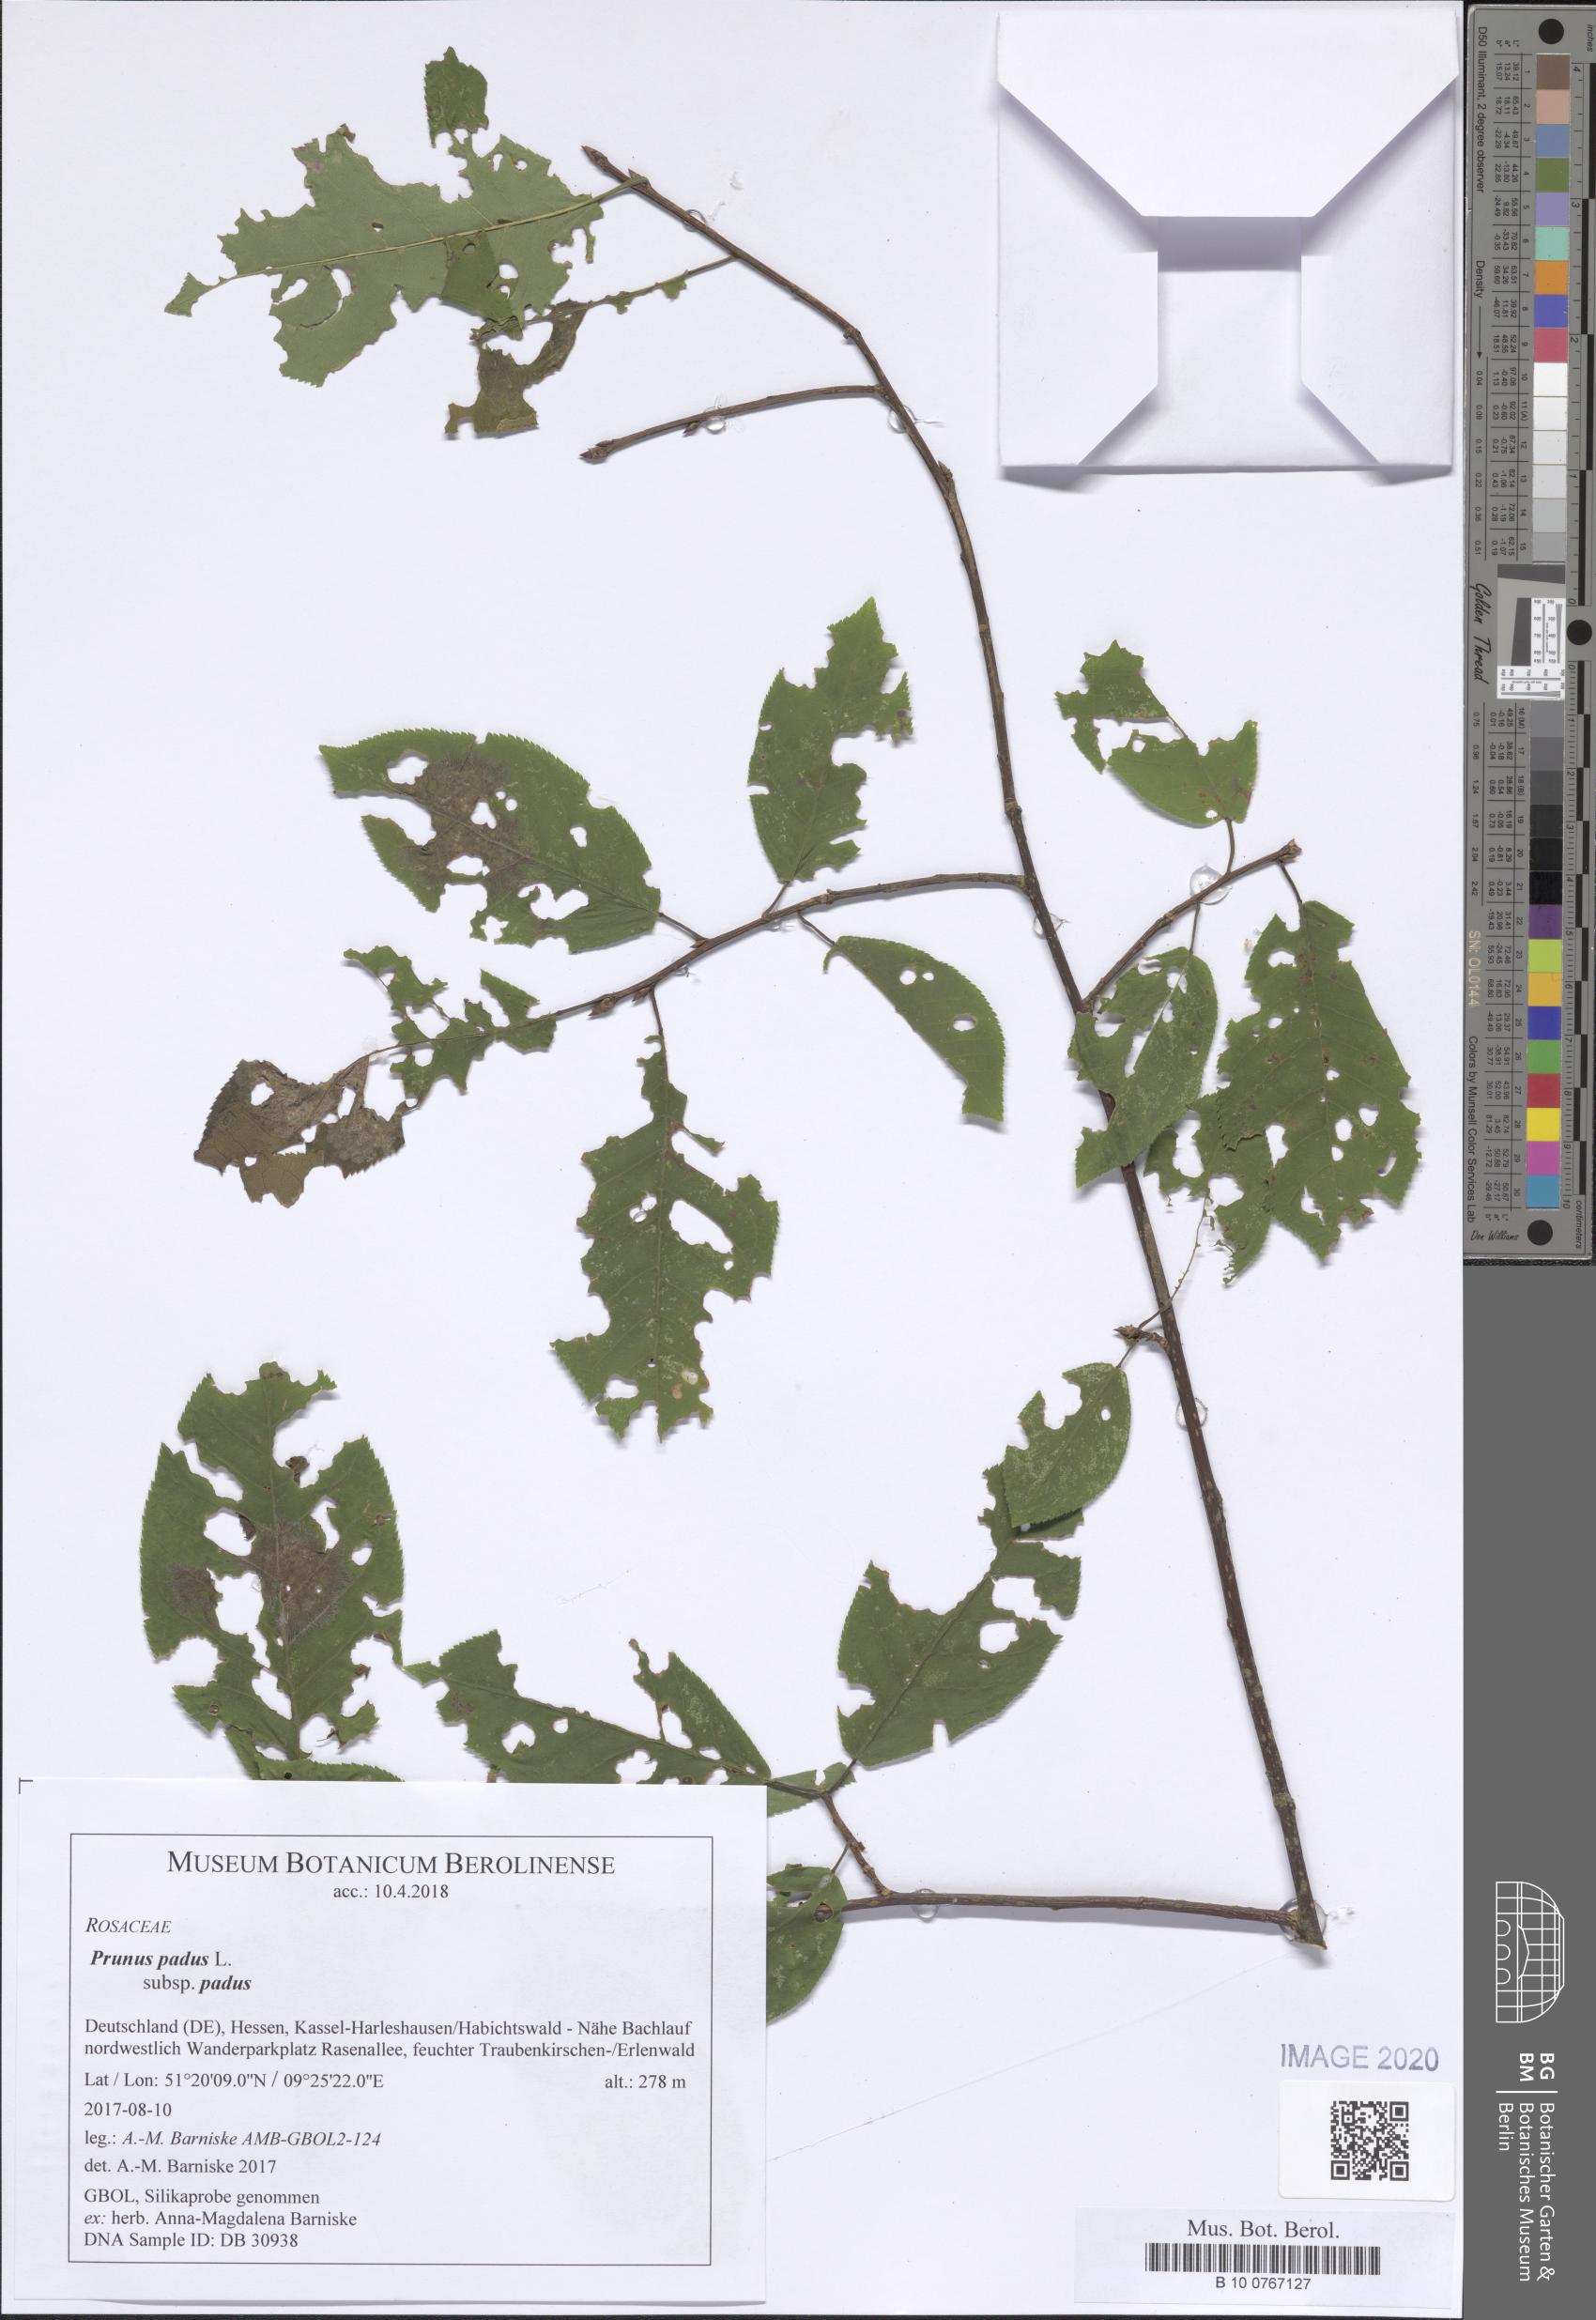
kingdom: Plantae
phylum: Tracheophyta
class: Magnoliopsida
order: Rosales
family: Rosaceae
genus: Prunus
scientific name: Prunus padus
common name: Bird cherry
